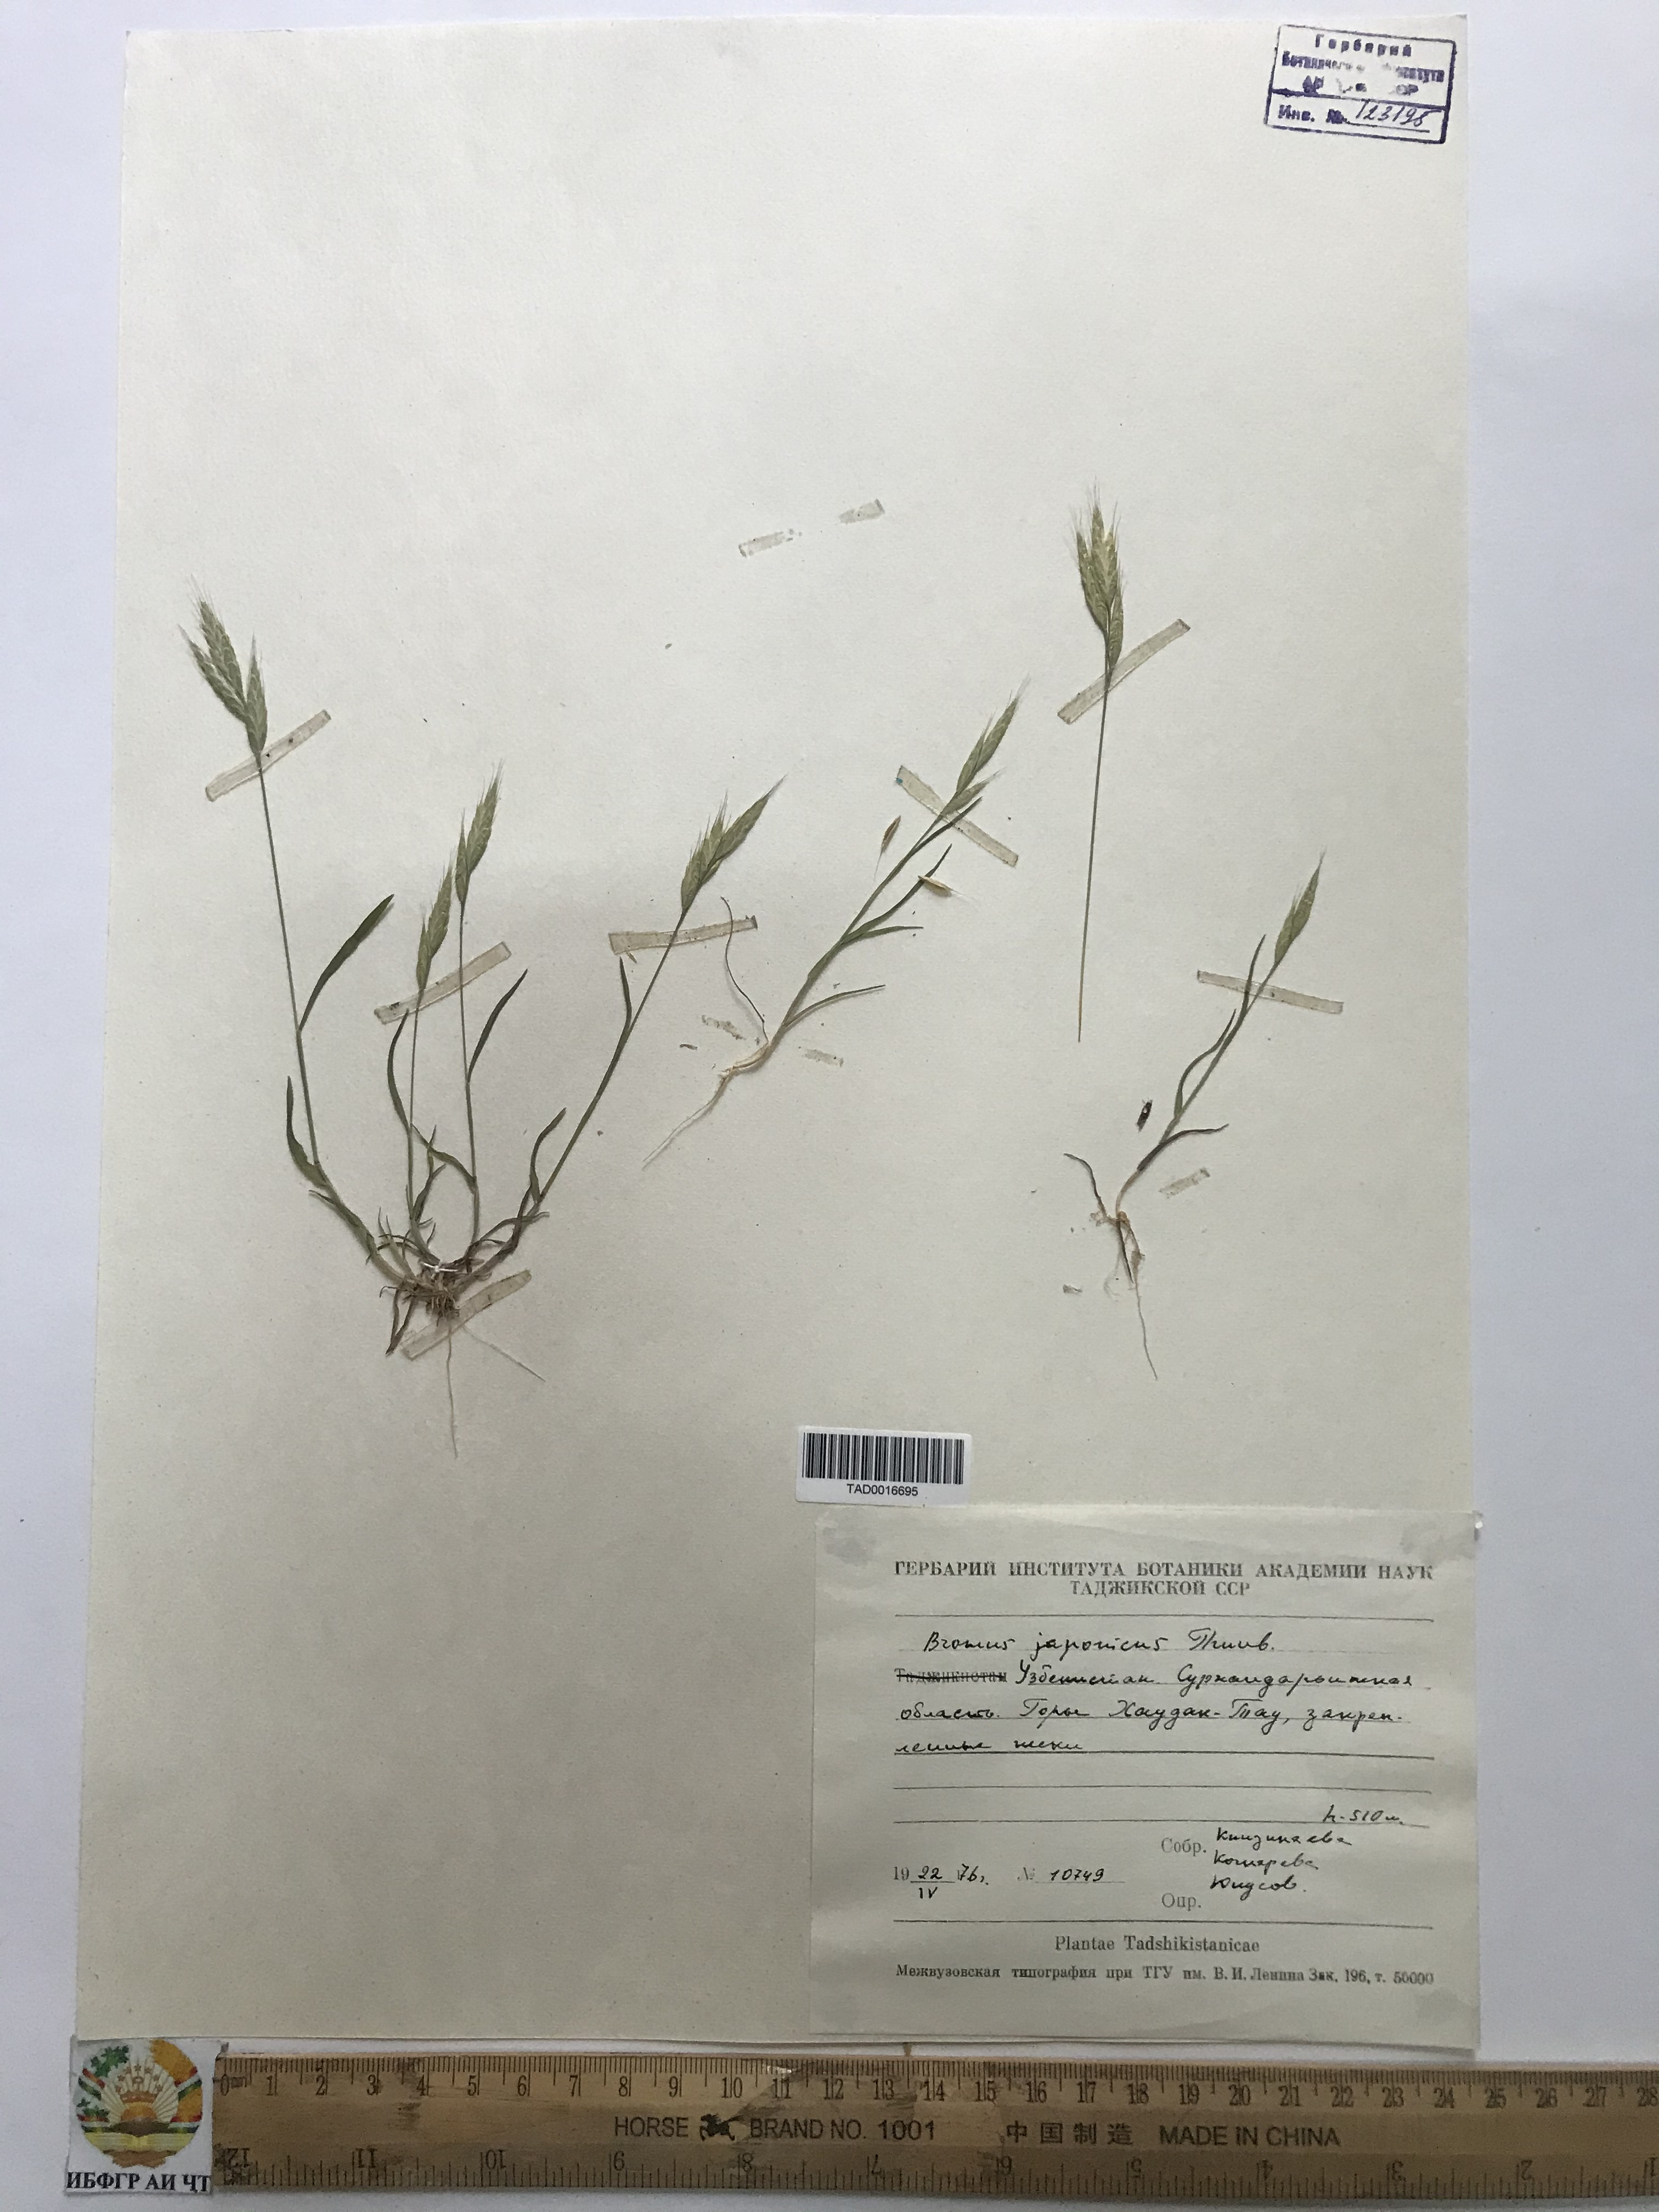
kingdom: Plantae
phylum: Tracheophyta
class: Liliopsida
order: Poales
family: Poaceae
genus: Bromus
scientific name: Bromus japonicus
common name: Japanese brome
